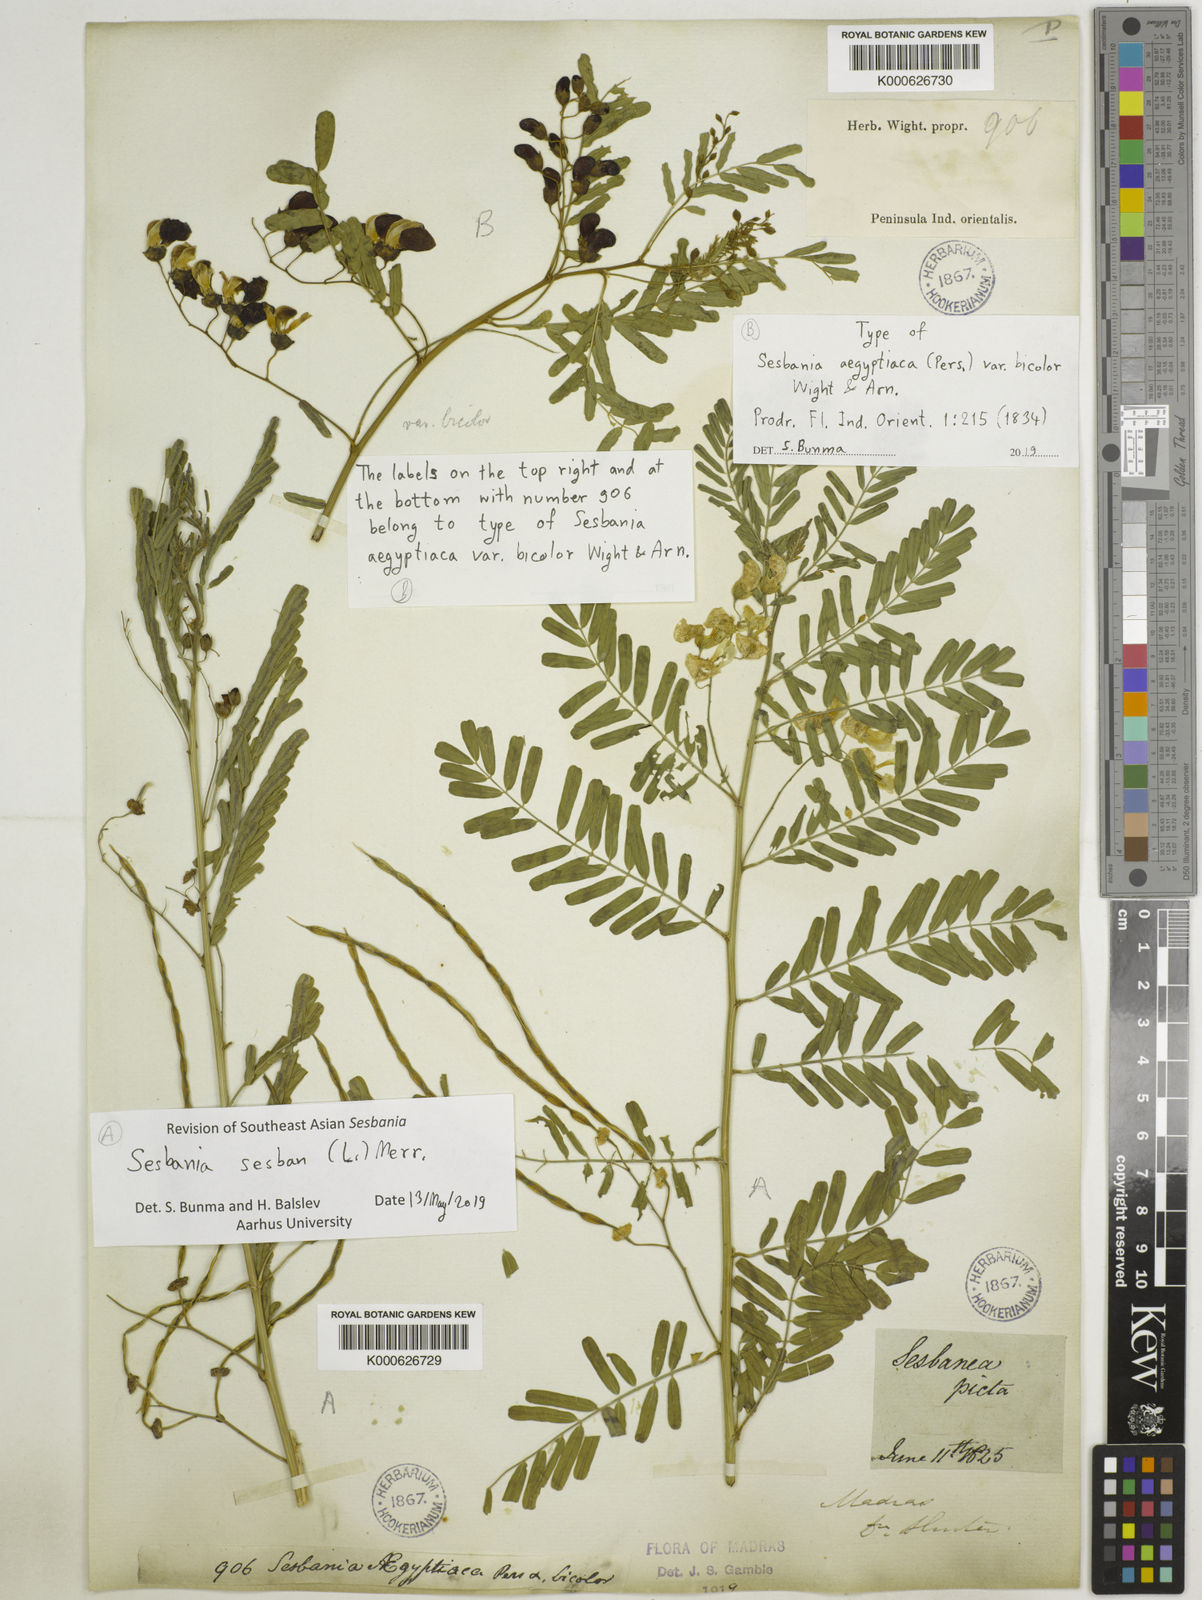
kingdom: Plantae
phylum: Tracheophyta
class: Magnoliopsida
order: Fabales
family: Fabaceae
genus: Sesbania
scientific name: Sesbania sesban
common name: Egyptian sesban
